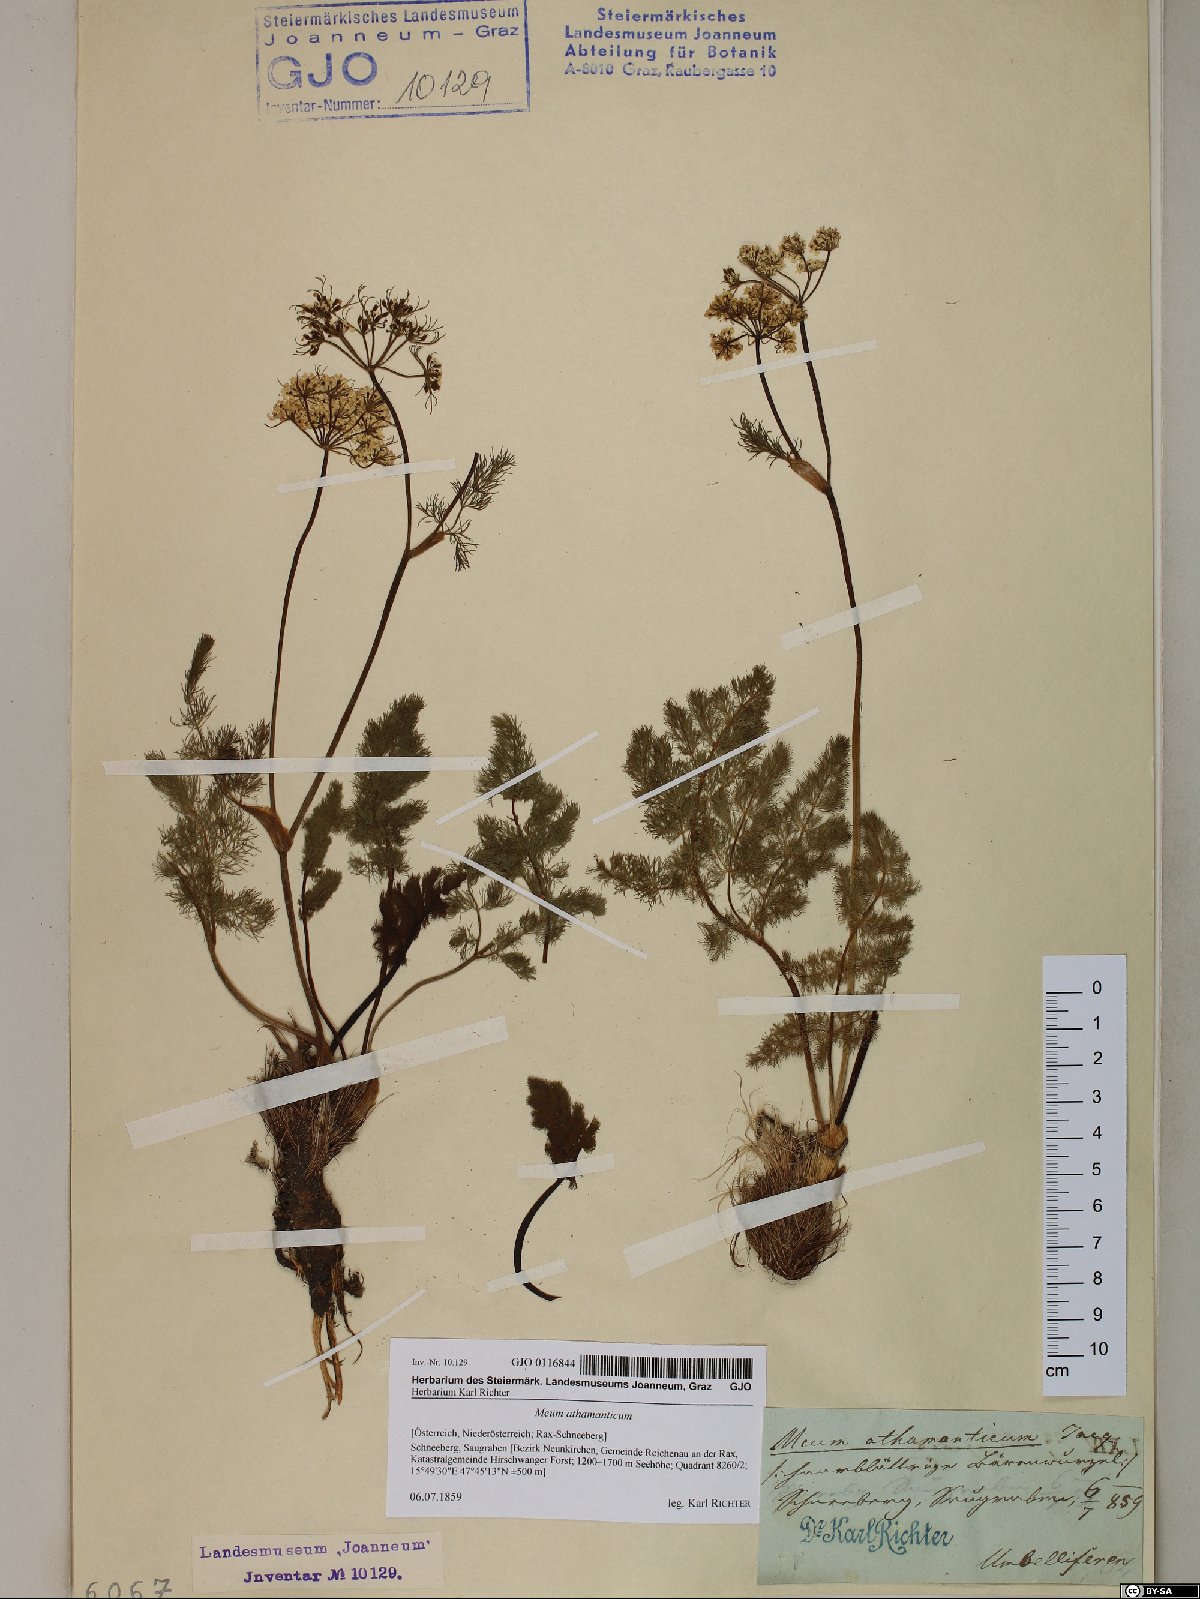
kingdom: Plantae
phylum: Tracheophyta
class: Magnoliopsida
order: Apiales
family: Apiaceae
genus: Meum
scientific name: Meum athamanticum
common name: Spignel
